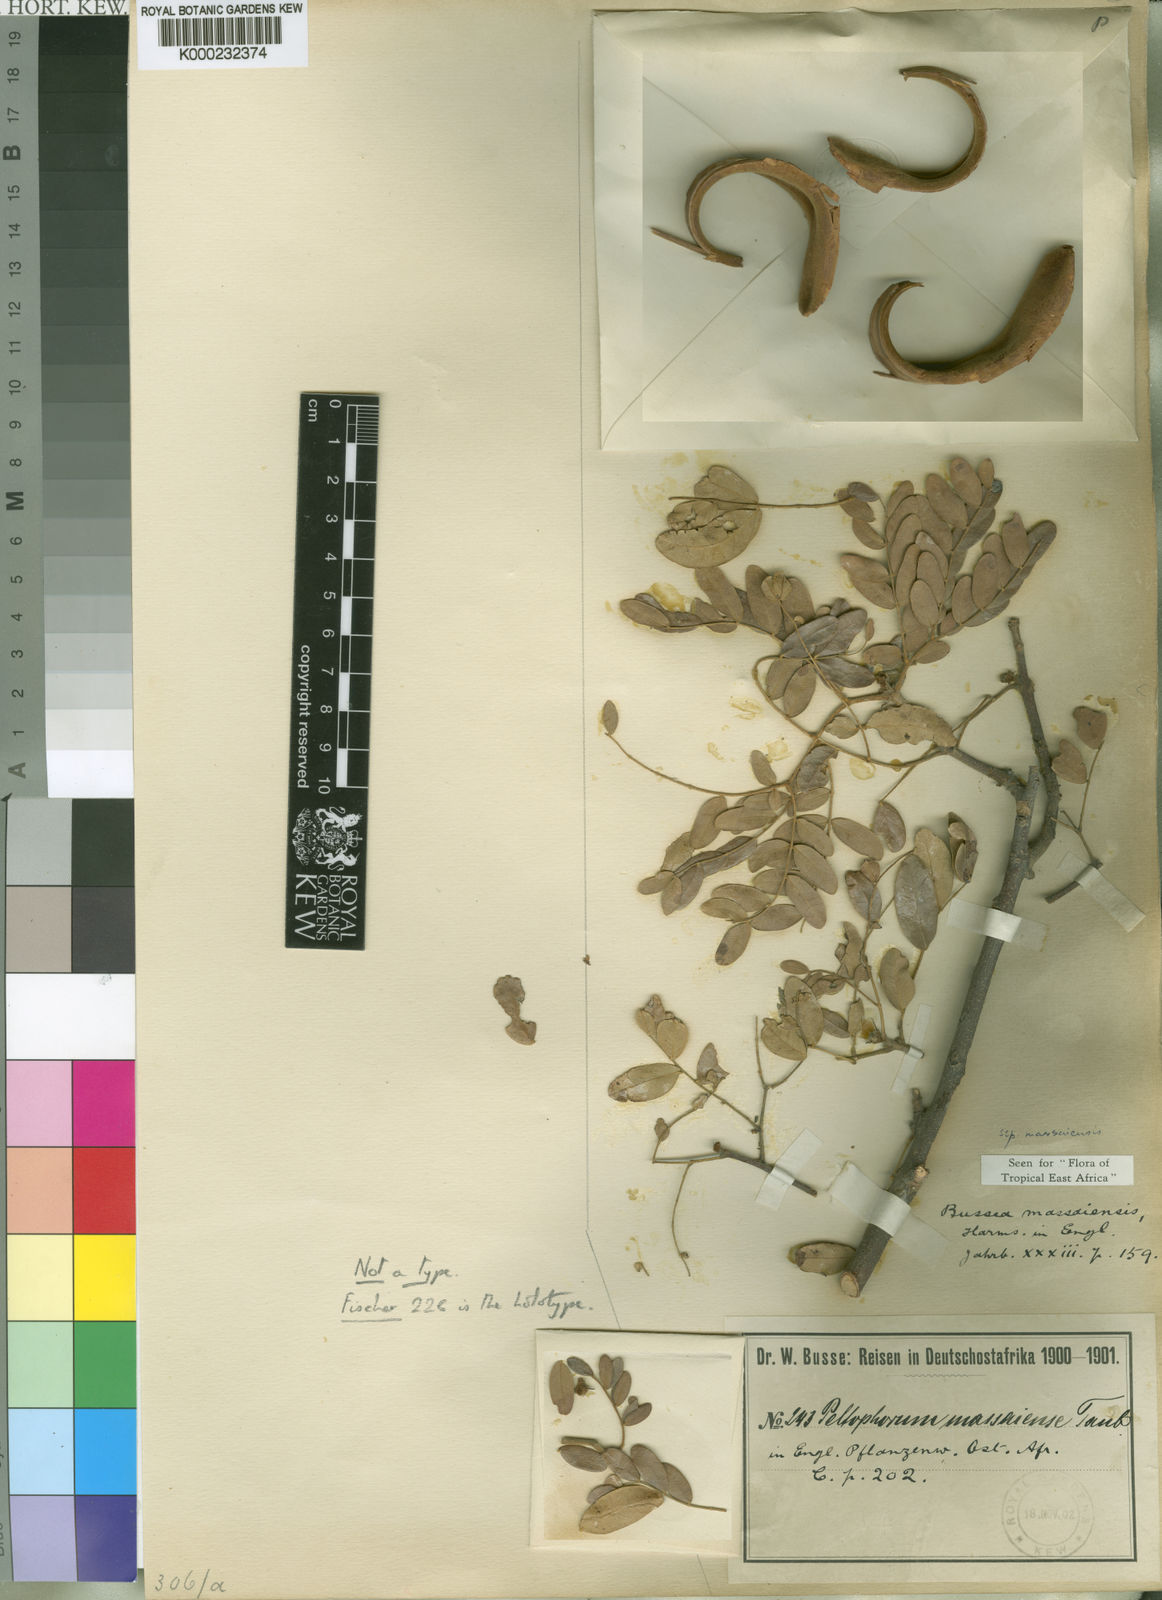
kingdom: Plantae
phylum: Tracheophyta
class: Magnoliopsida
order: Fabales
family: Fabaceae
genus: Bussea
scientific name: Bussea massaiensis
